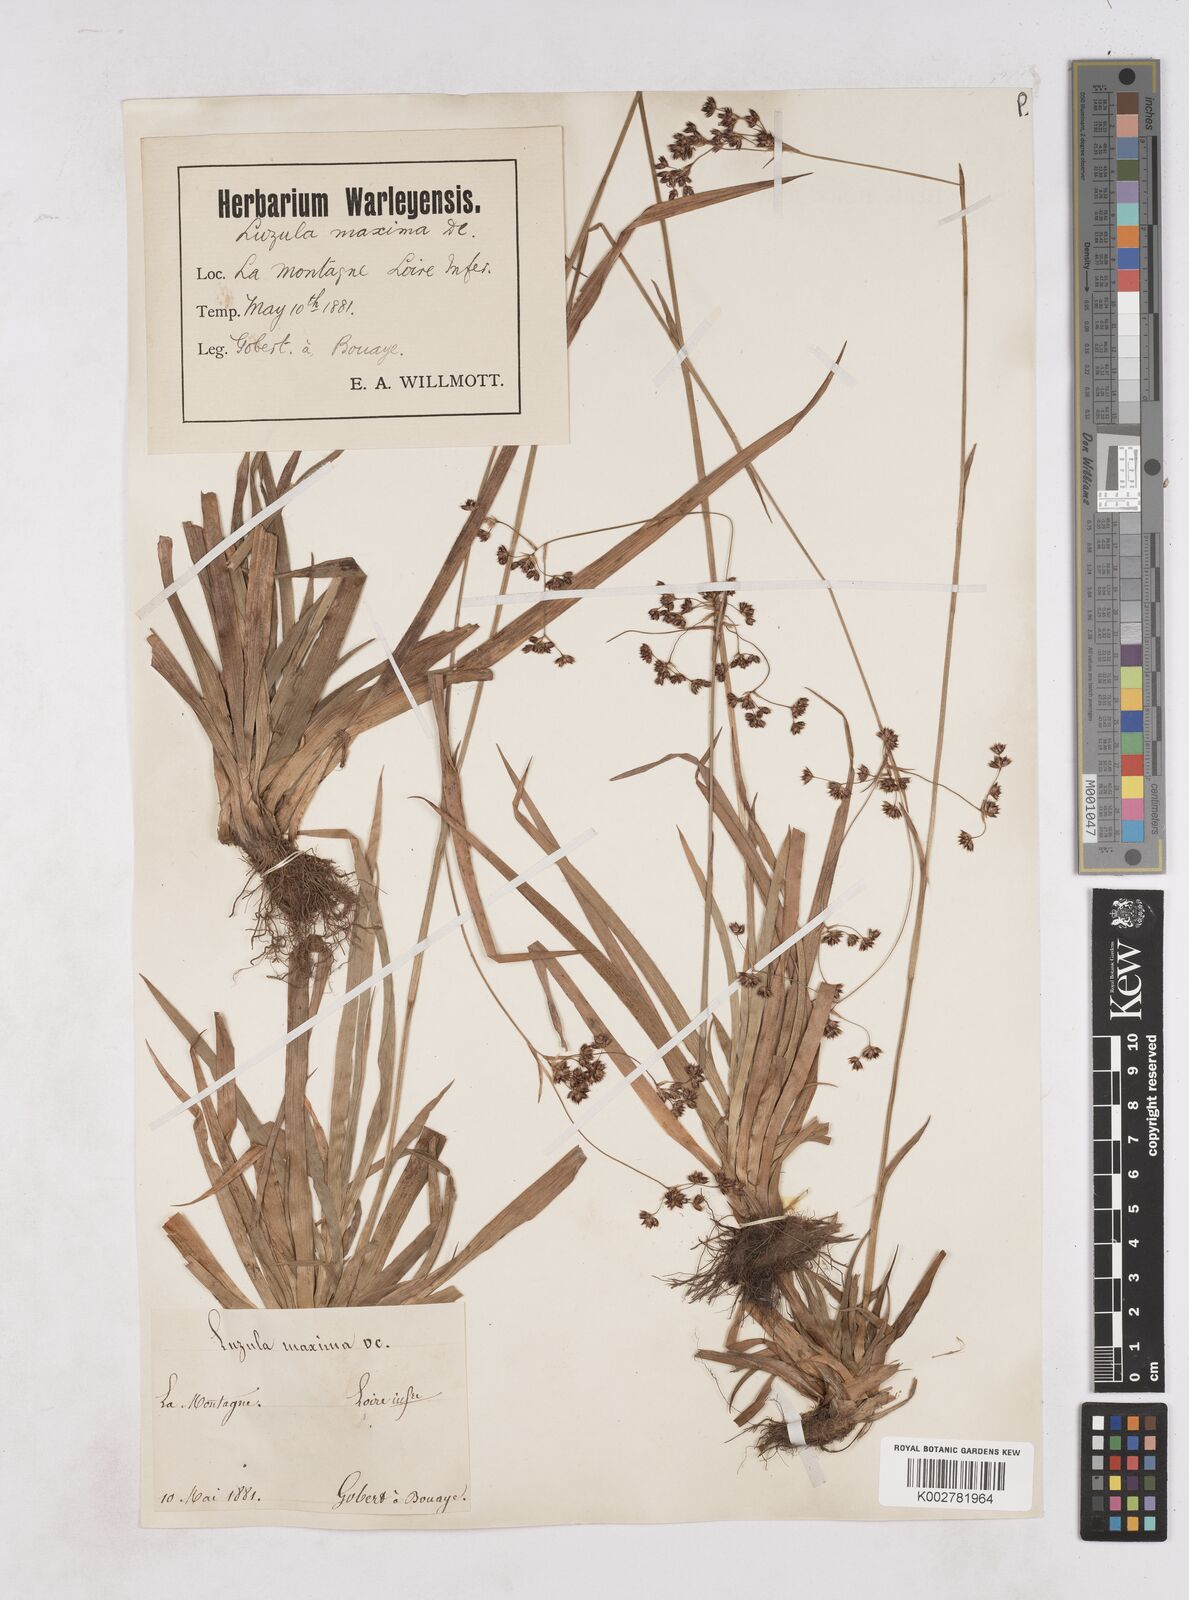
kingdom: Plantae
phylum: Tracheophyta
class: Liliopsida
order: Poales
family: Juncaceae
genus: Luzula
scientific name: Luzula sylvatica
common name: Great wood-rush
